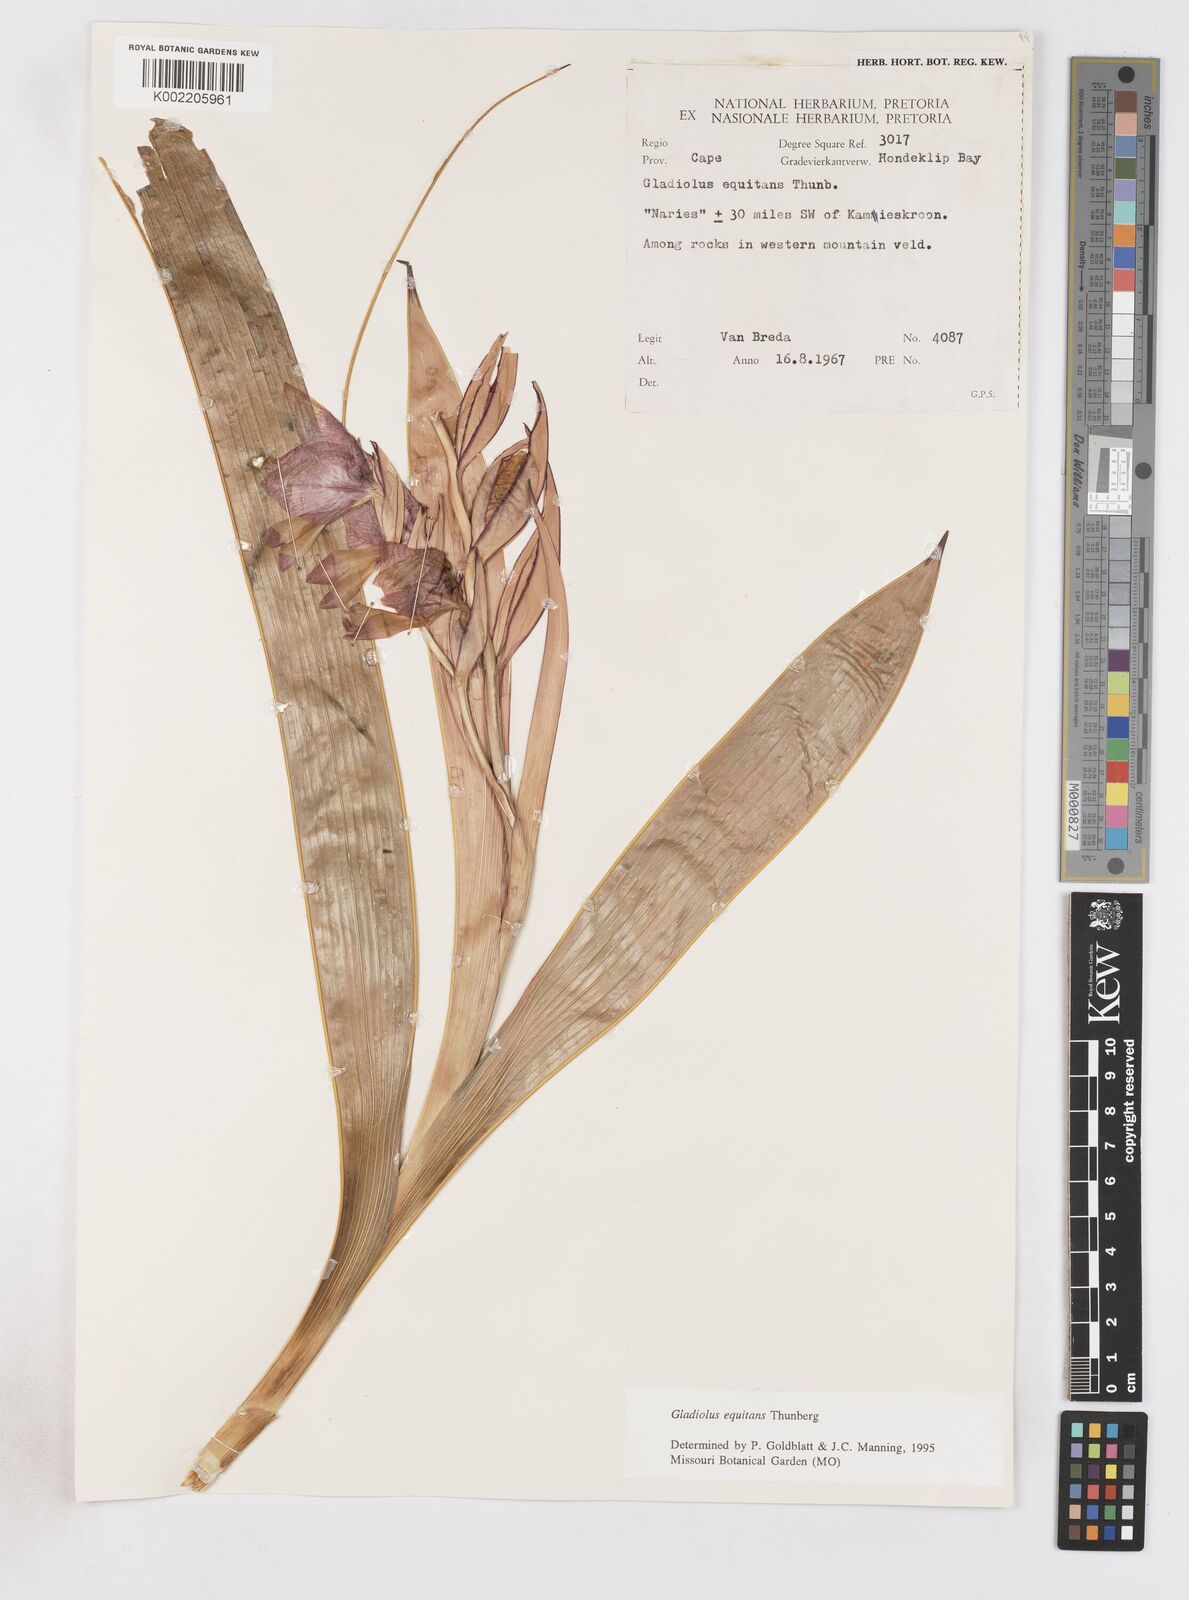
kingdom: Plantae
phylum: Tracheophyta
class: Liliopsida
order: Asparagales
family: Iridaceae
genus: Gladiolus
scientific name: Gladiolus equitans
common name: Large red kalkoentjie
